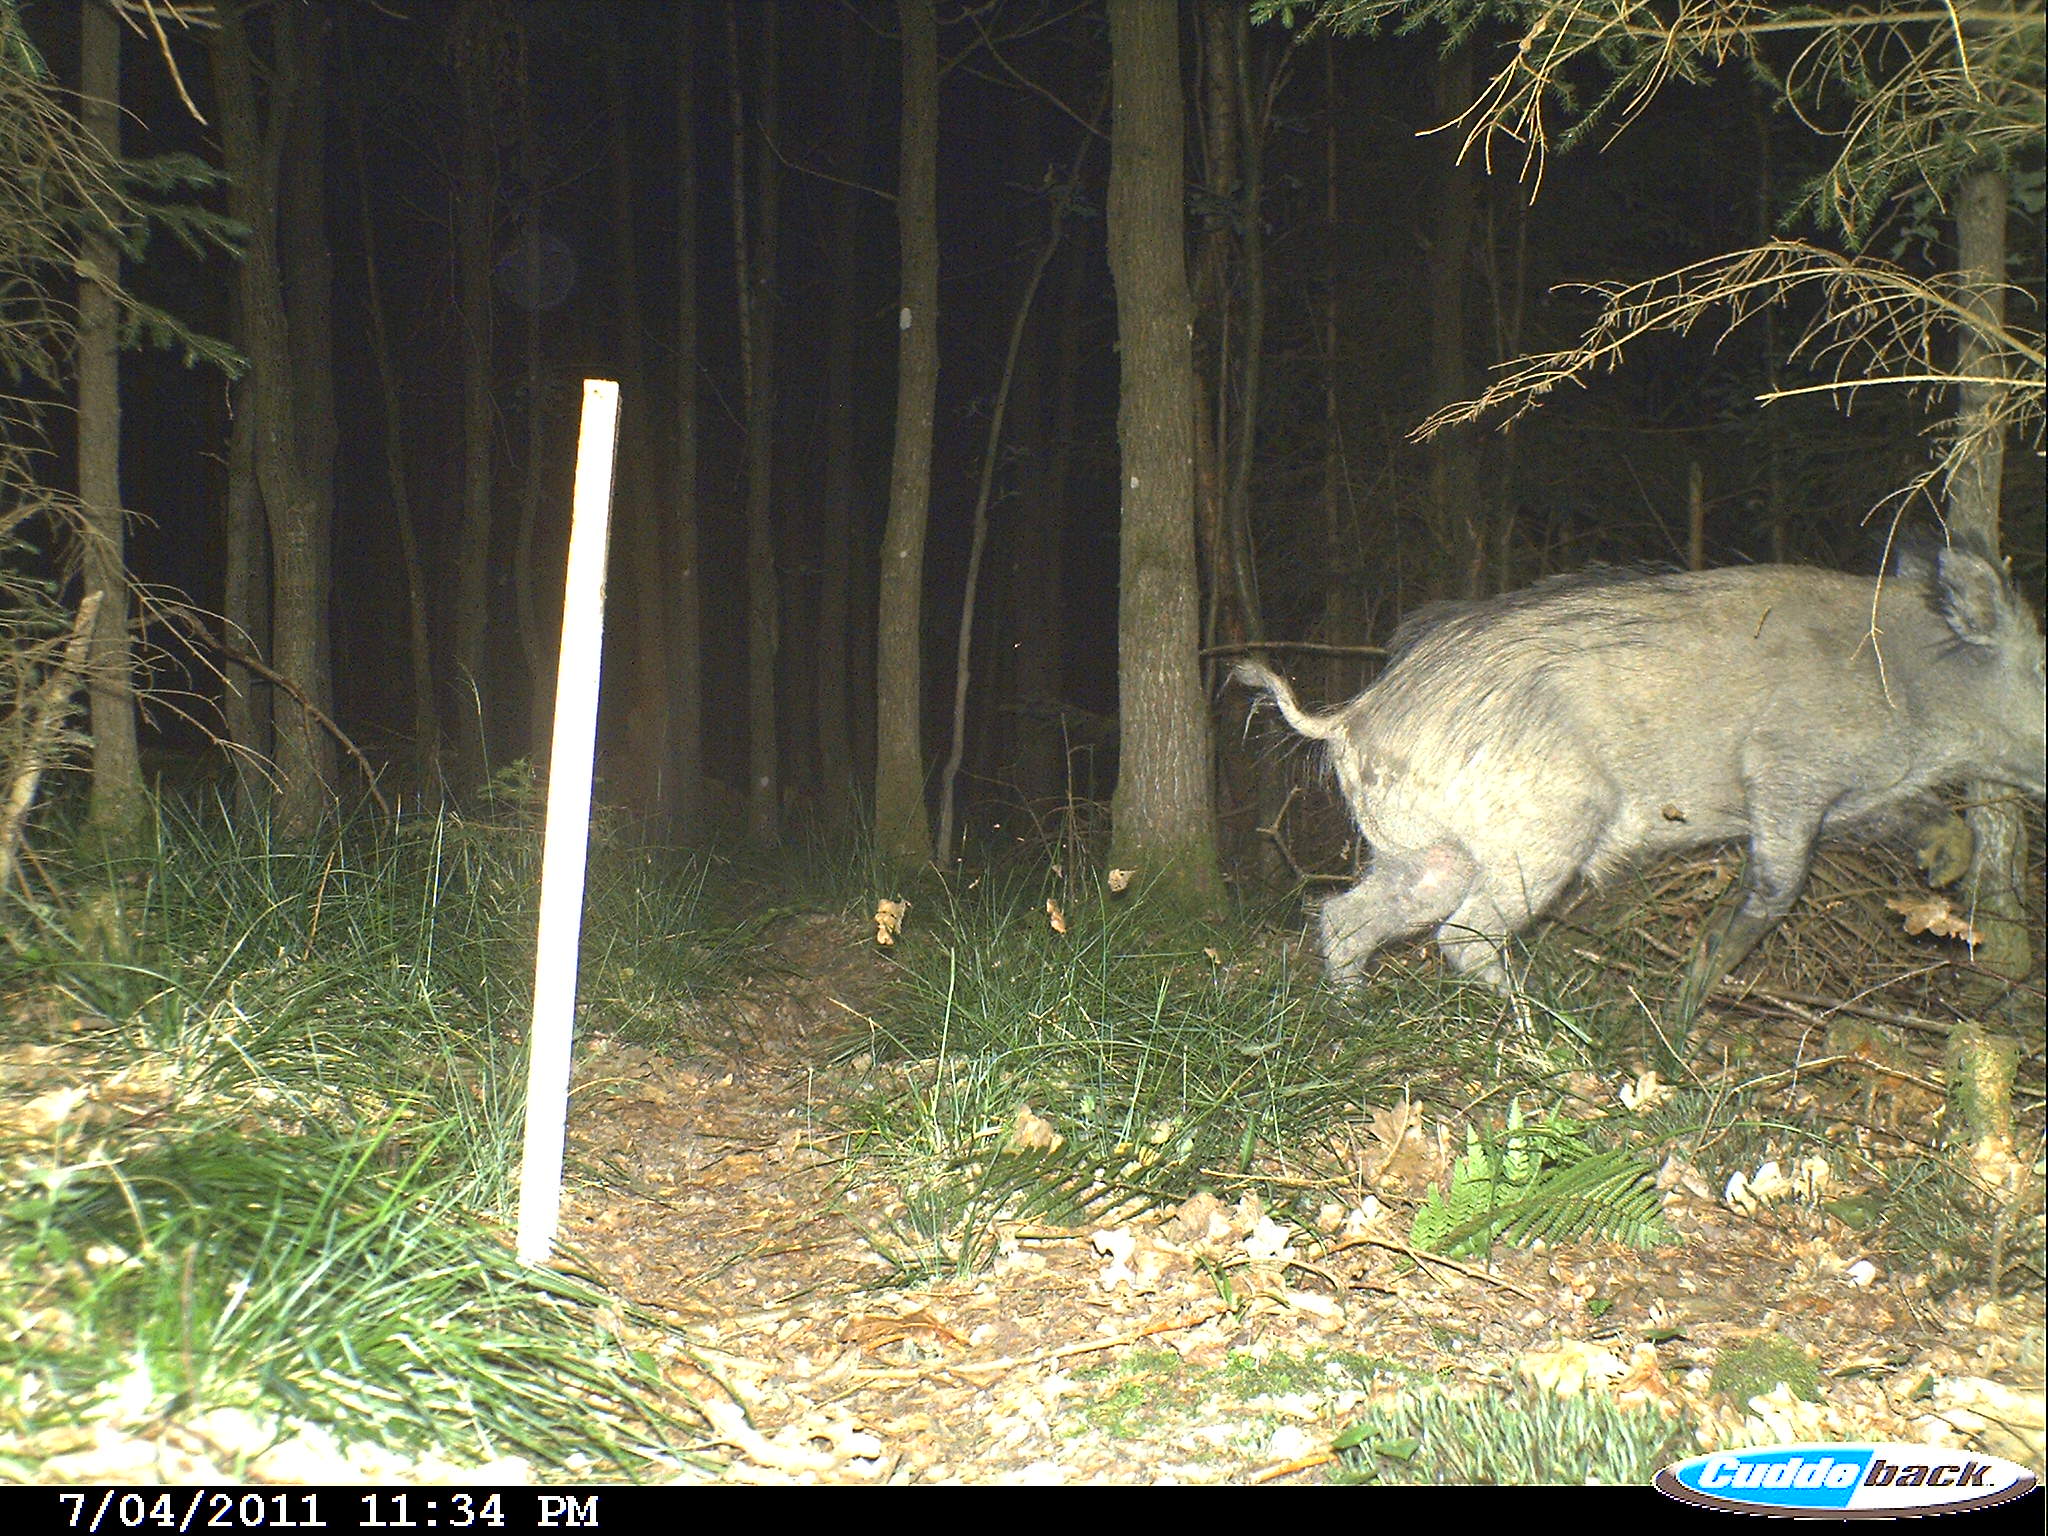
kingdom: Animalia
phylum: Chordata
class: Mammalia
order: Artiodactyla
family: Suidae
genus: Sus
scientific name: Sus scrofa
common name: Wild boar
